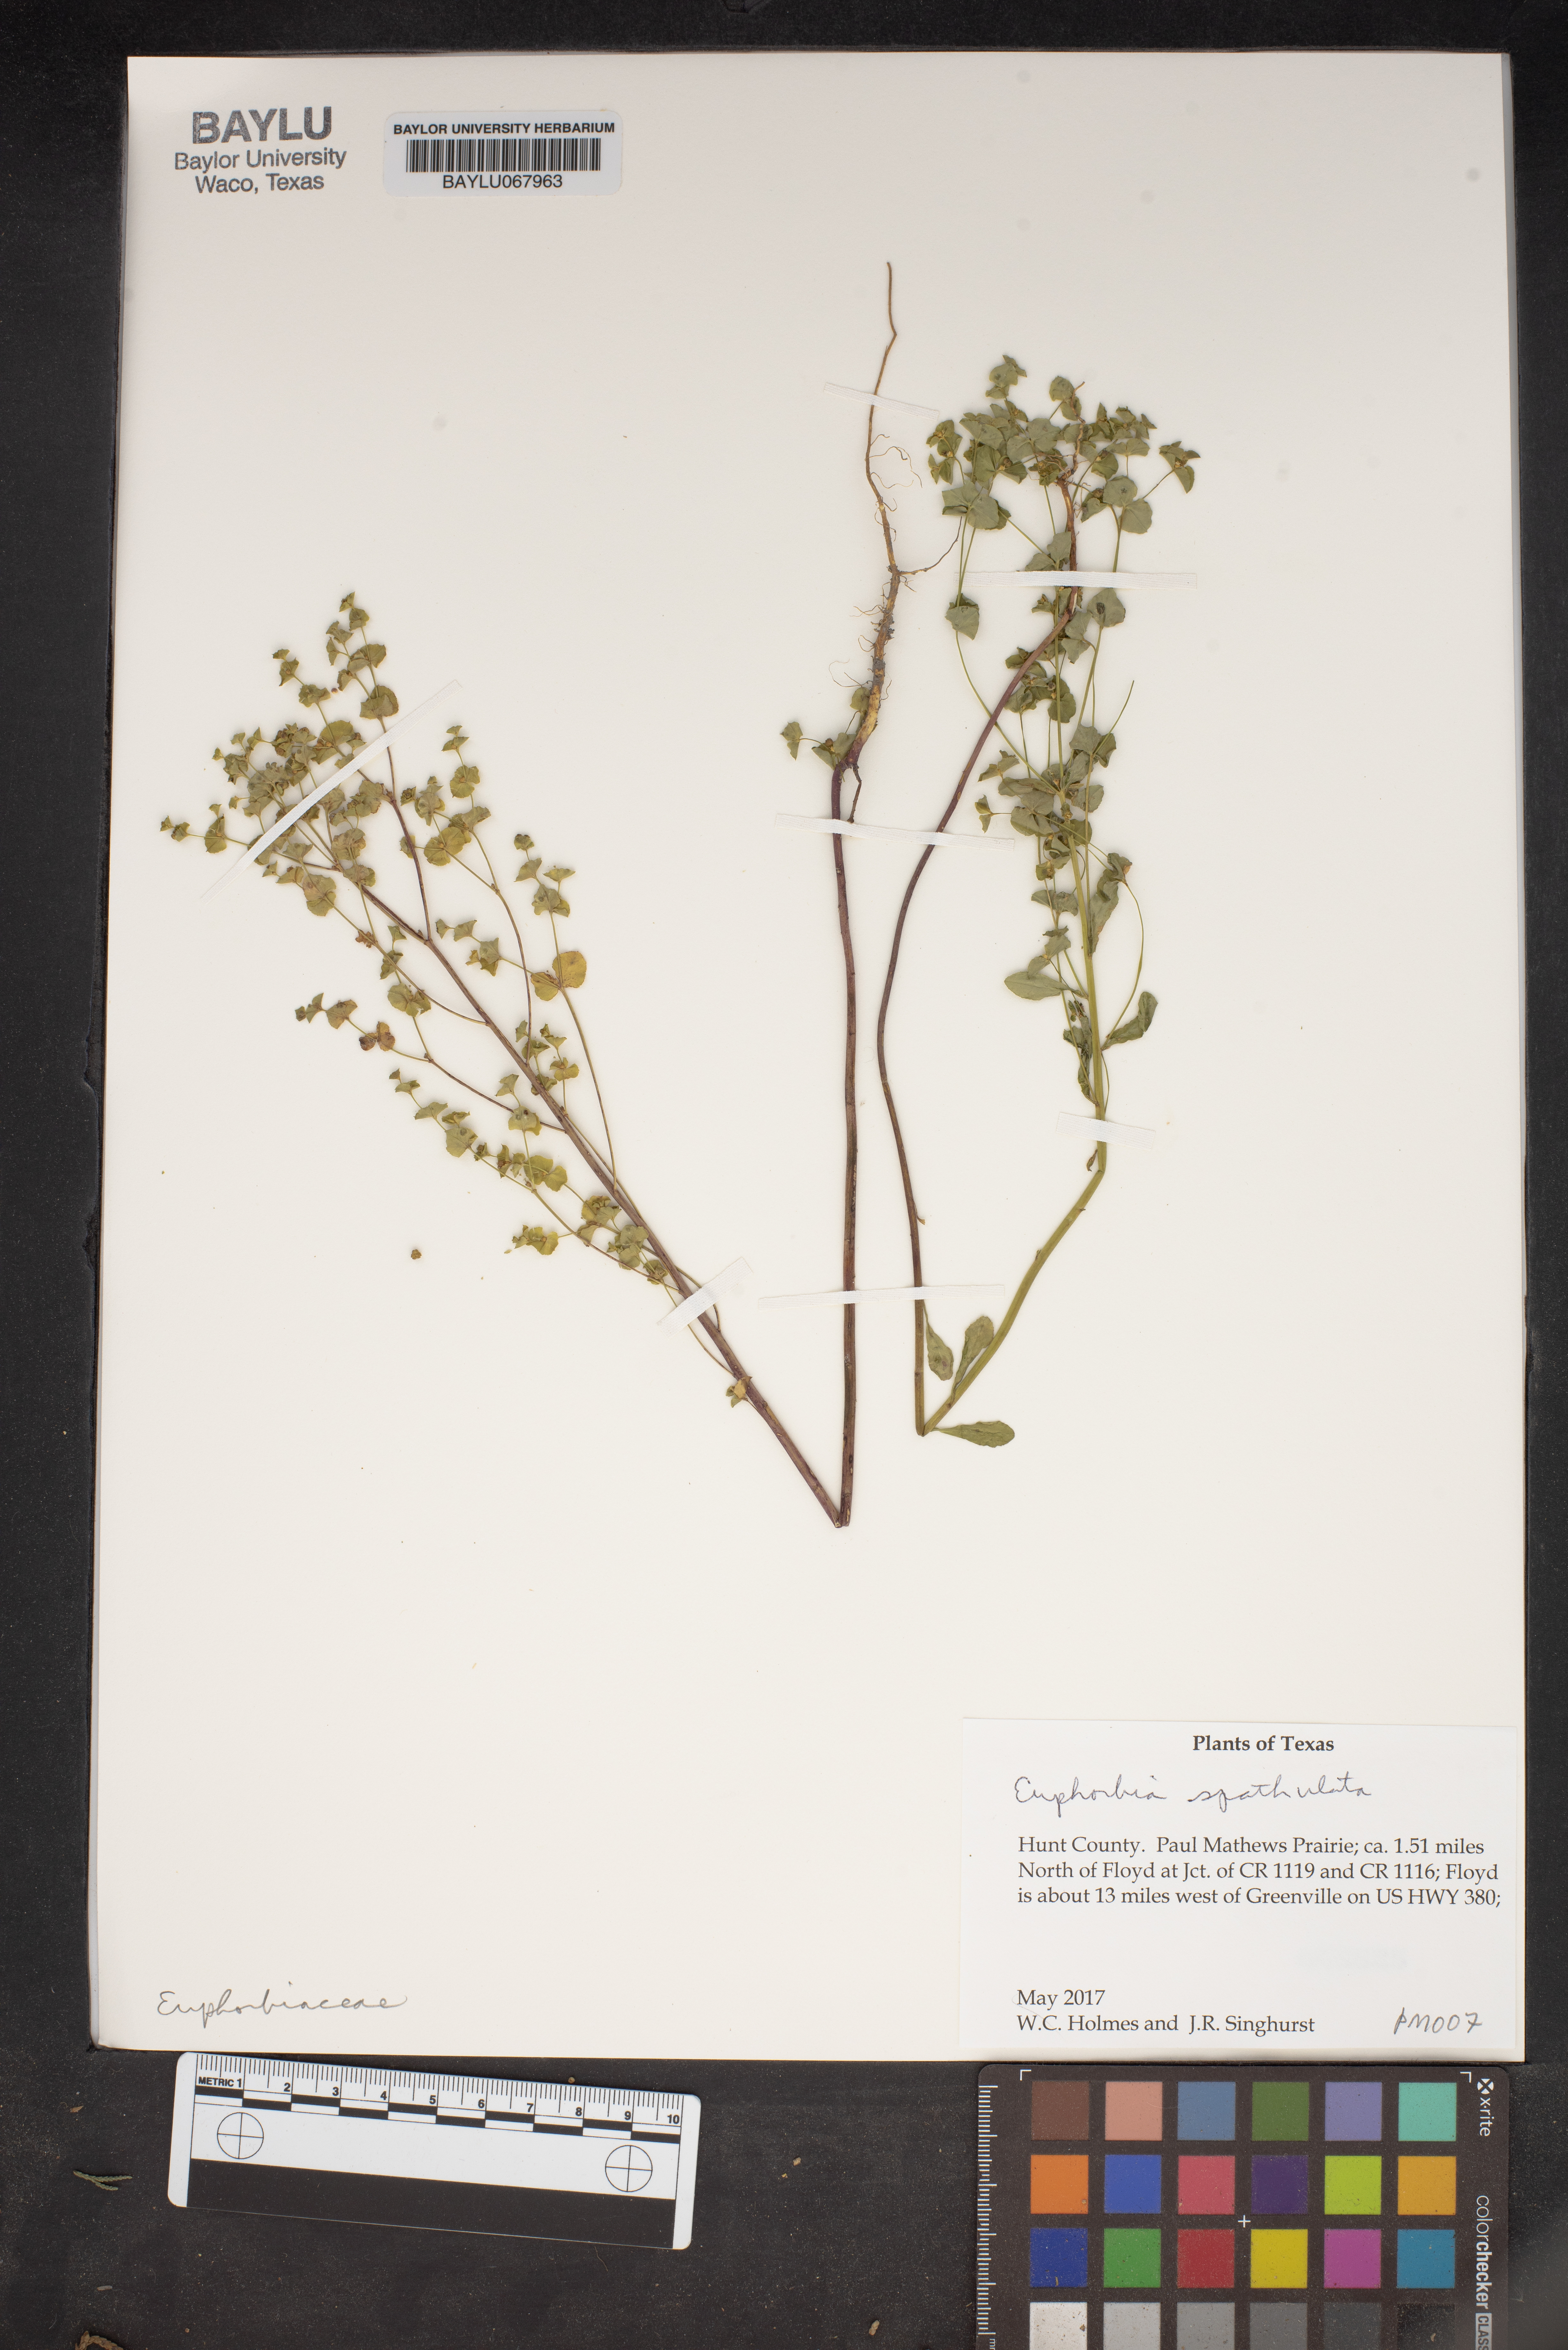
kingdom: Plantae
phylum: Tracheophyta
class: Magnoliopsida
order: Malpighiales
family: Euphorbiaceae
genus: Euphorbia
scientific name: Euphorbia spathulata
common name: Blunt spurge
